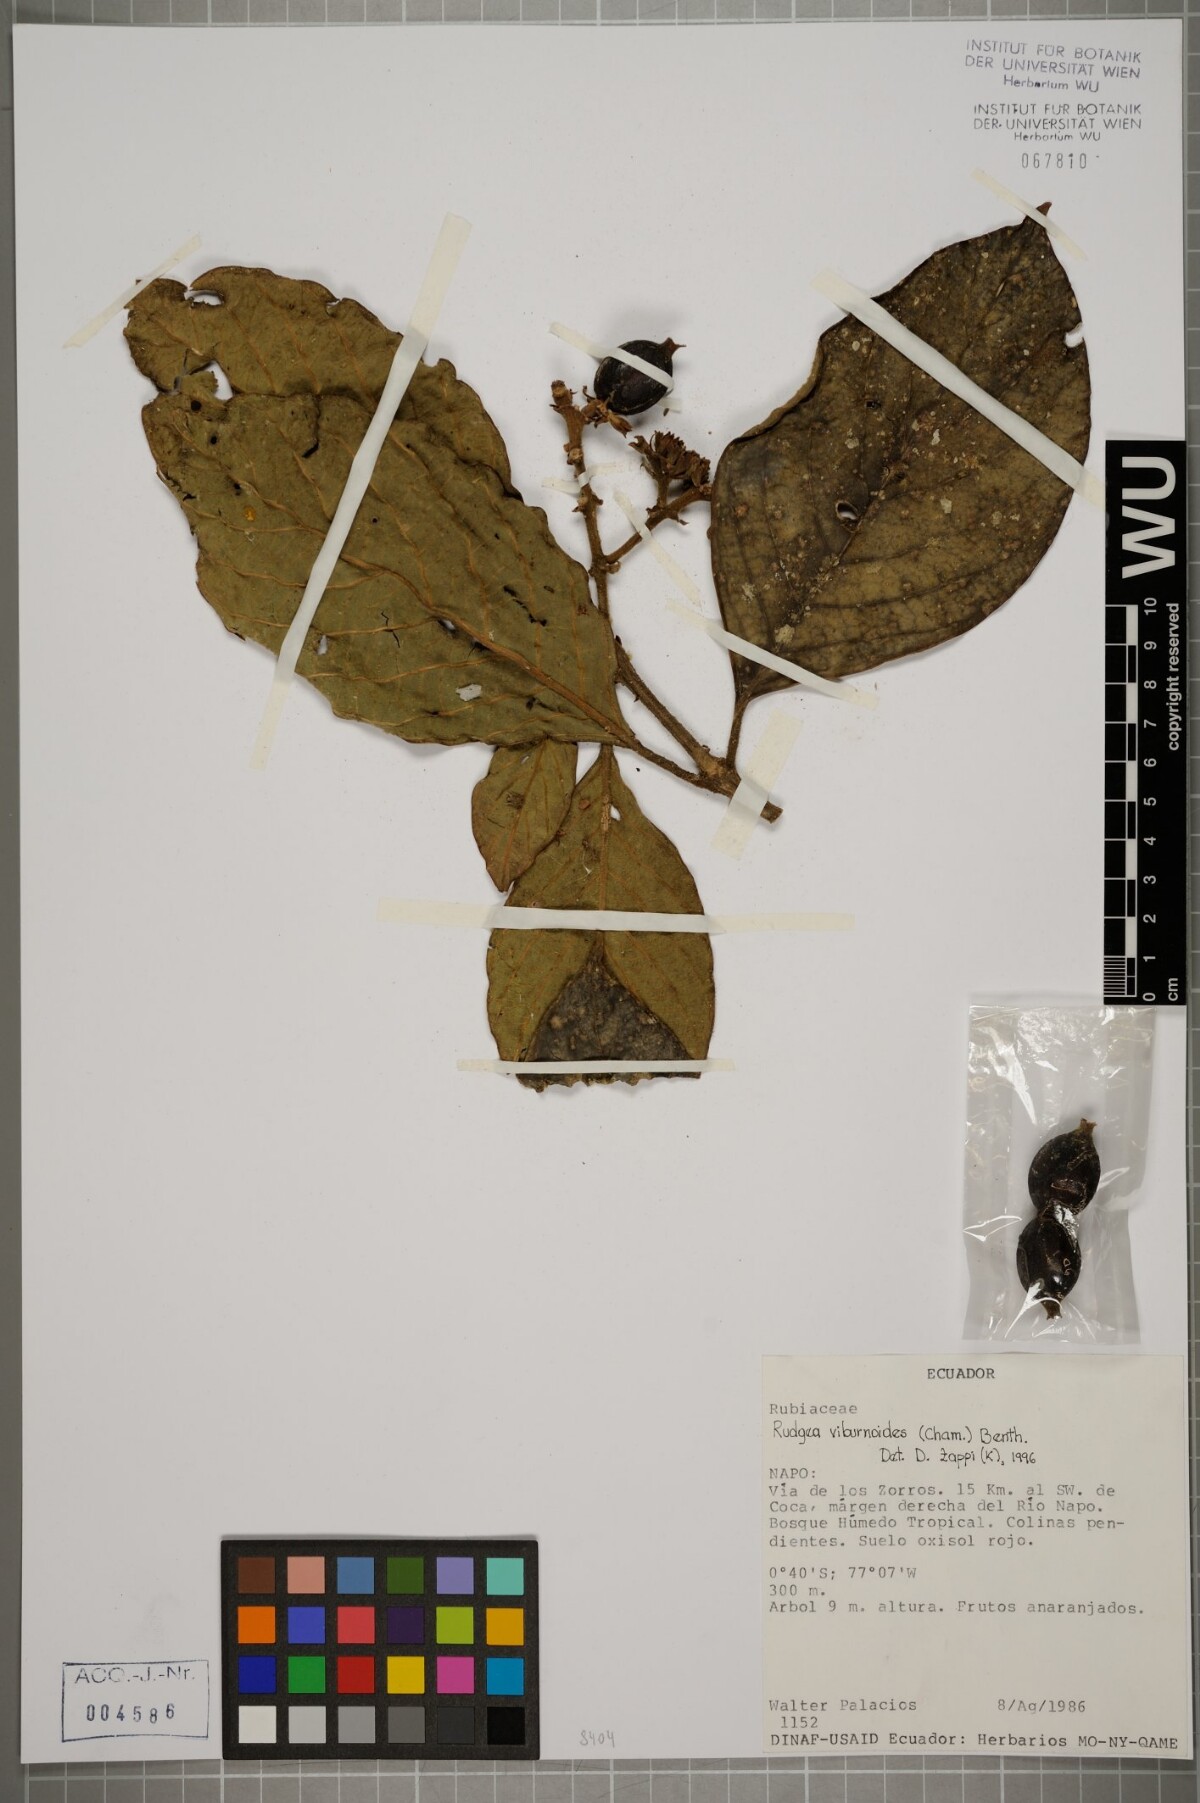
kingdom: Plantae
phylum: Tracheophyta
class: Magnoliopsida
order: Gentianales
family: Rubiaceae
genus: Rudgea
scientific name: Rudgea viburnoides
